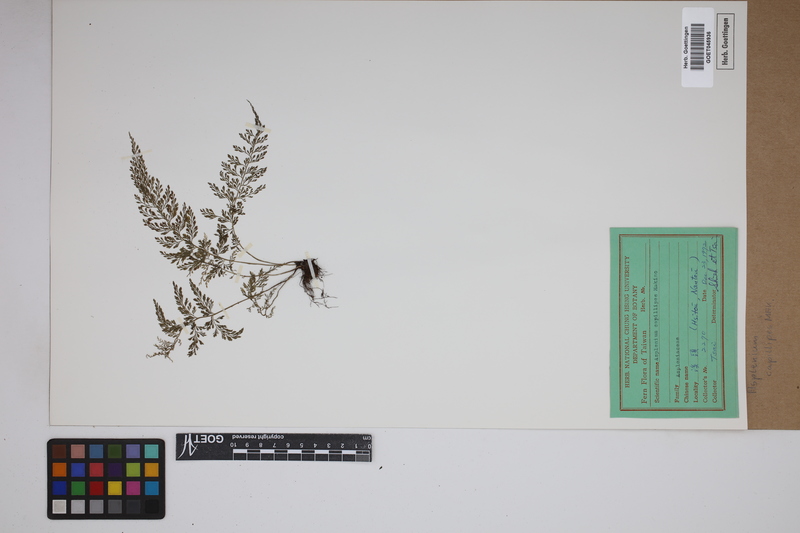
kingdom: Plantae
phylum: Tracheophyta
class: Polypodiopsida
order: Polypodiales
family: Aspleniaceae
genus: Asplenium
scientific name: Asplenium capillipes
